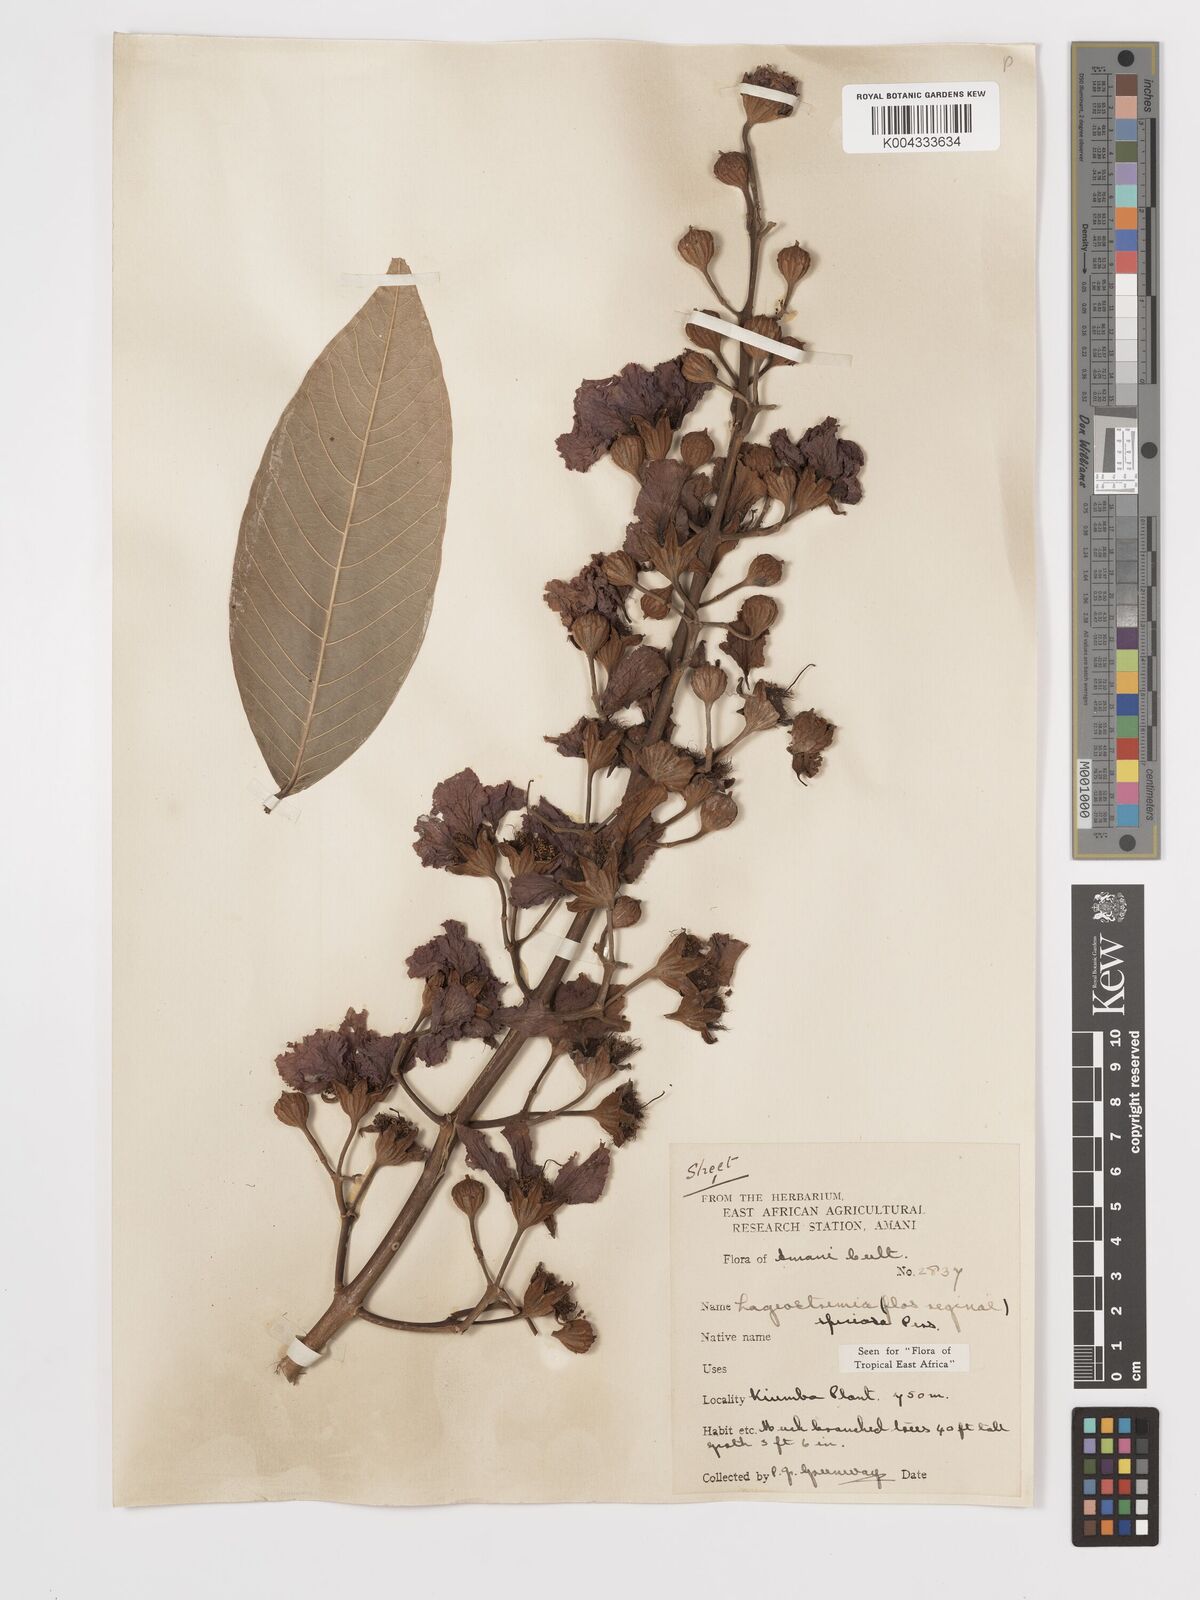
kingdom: Plantae
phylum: Tracheophyta
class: Magnoliopsida
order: Myrtales
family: Lythraceae
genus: Lagerstroemia
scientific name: Lagerstroemia speciosa
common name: Queen's crape-myrtle
